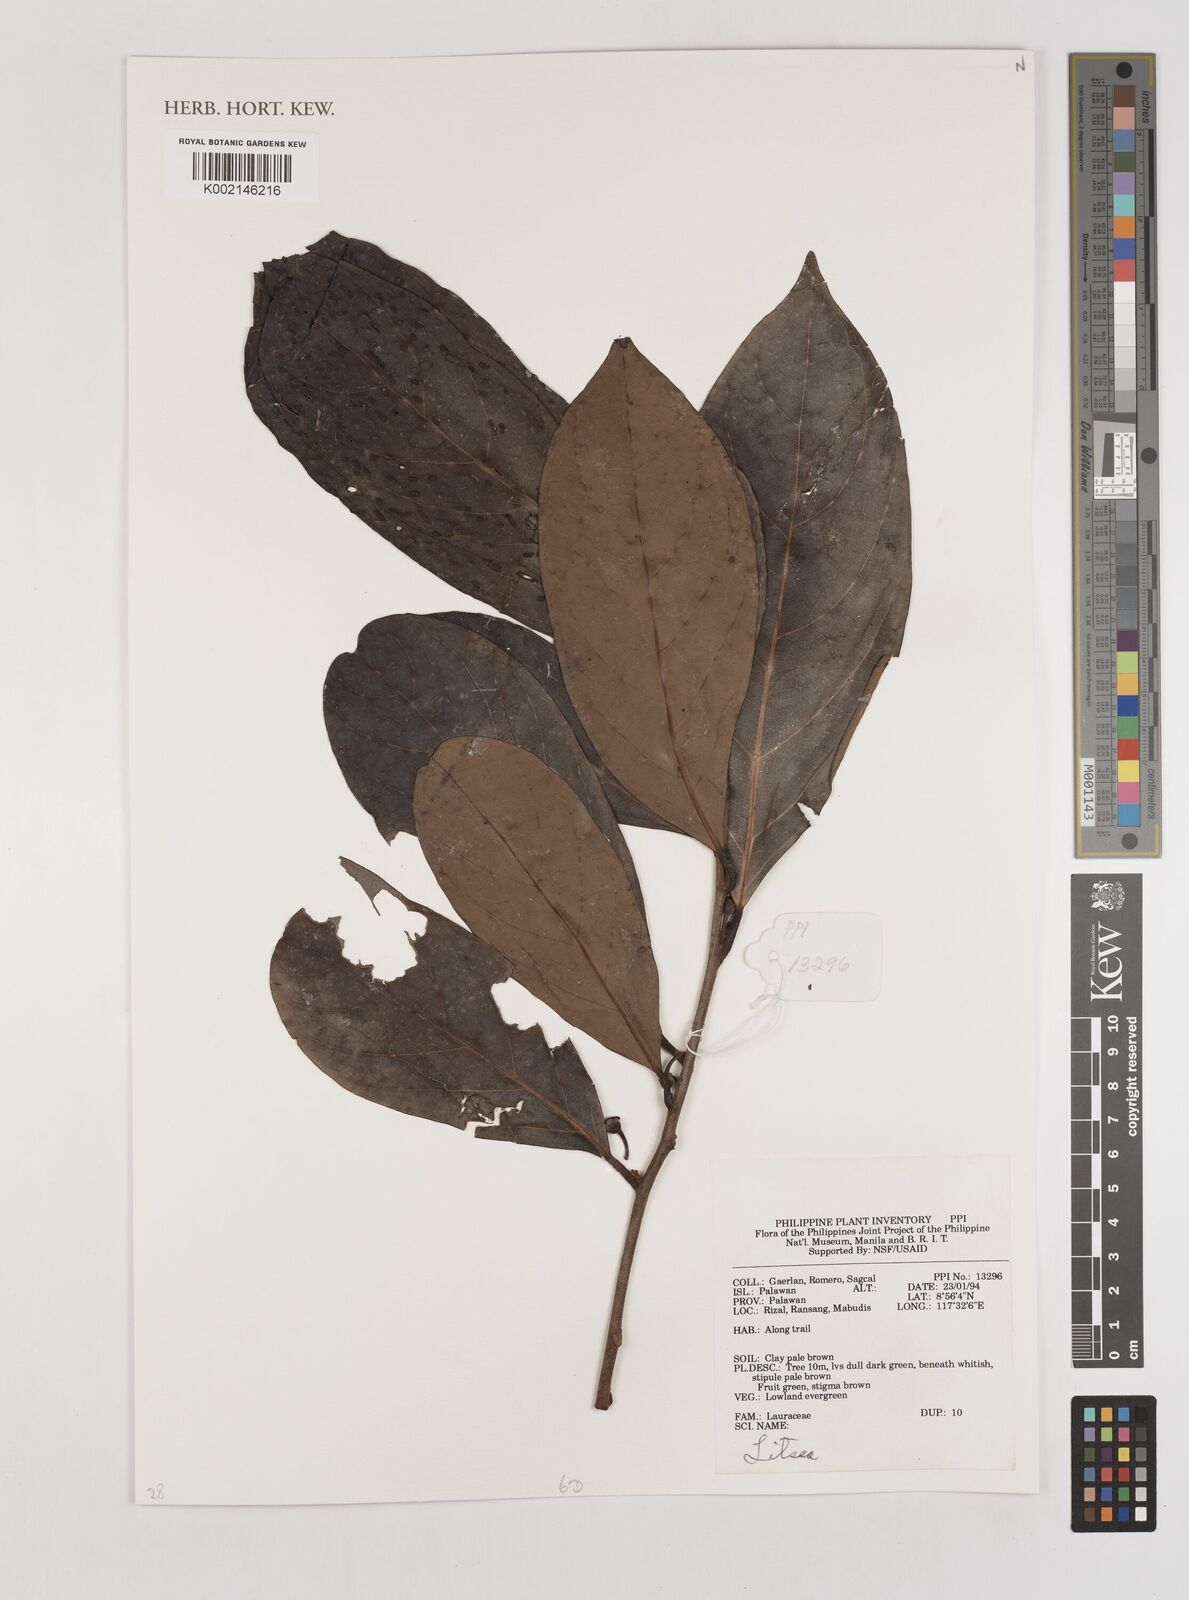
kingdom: Plantae
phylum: Tracheophyta
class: Magnoliopsida
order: Laurales
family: Lauraceae
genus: Litsea
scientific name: Litsea
